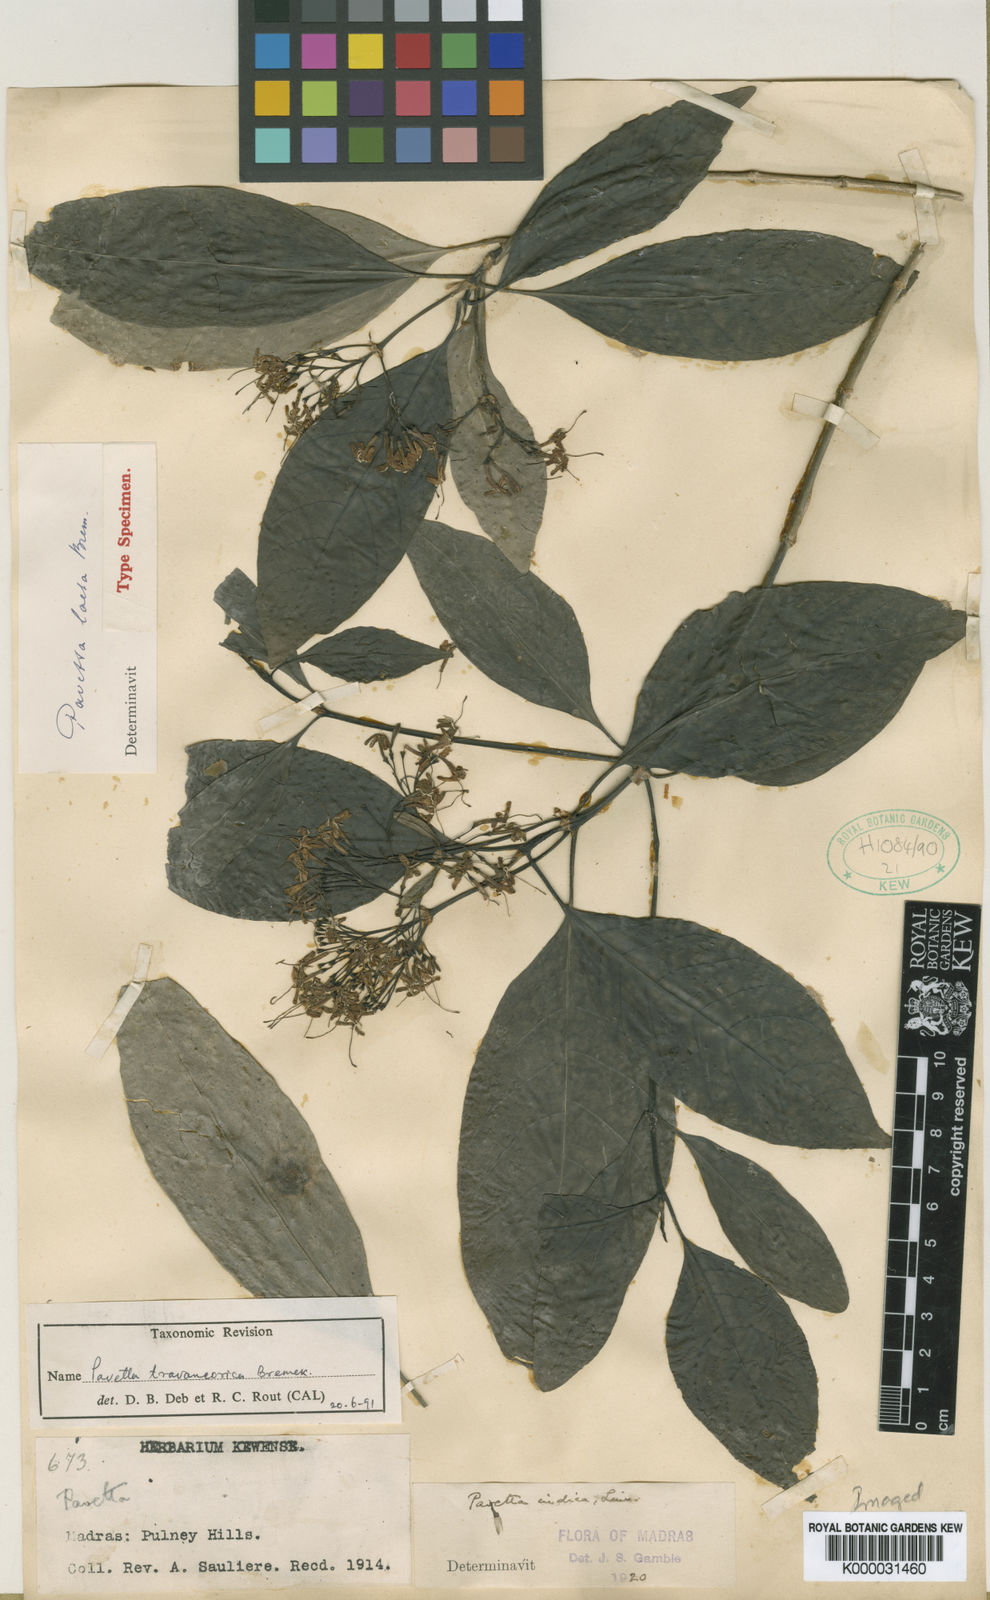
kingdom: Plantae
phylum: Tracheophyta
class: Magnoliopsida
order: Gentianales
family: Rubiaceae
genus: Pavetta
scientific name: Pavetta travancorica
